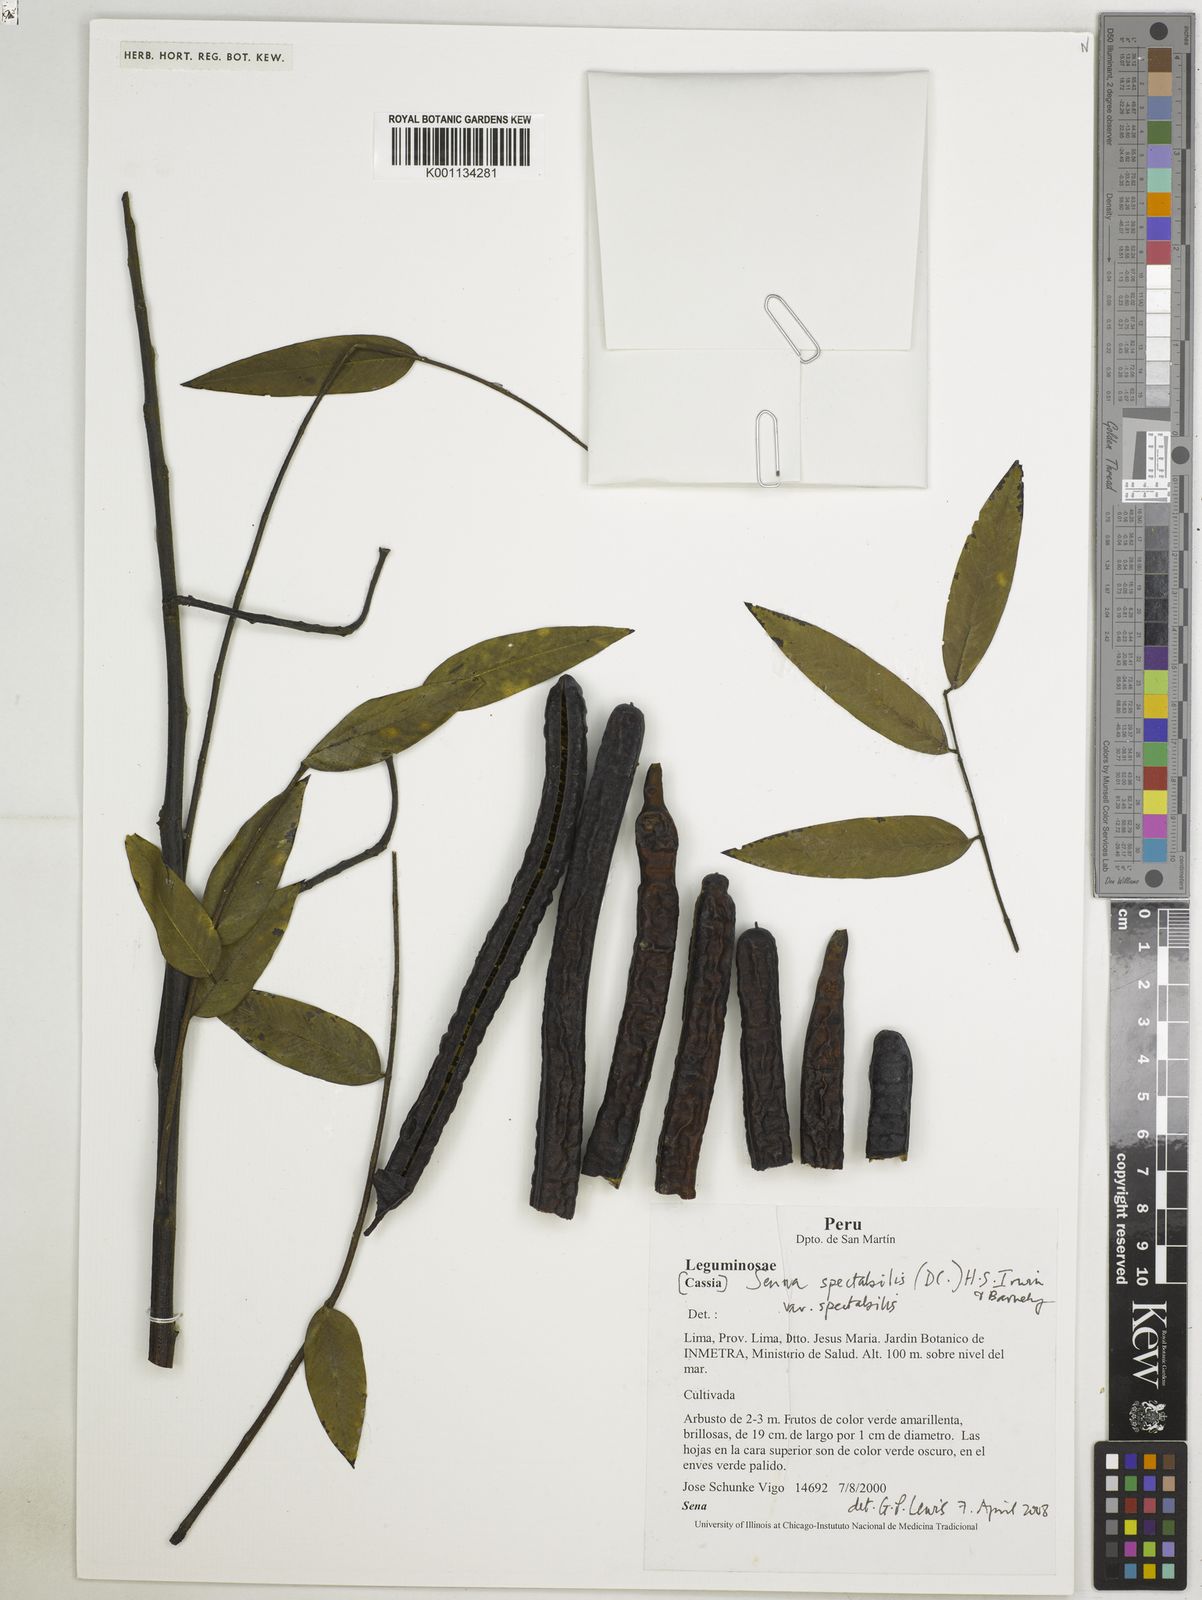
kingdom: Plantae
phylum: Tracheophyta
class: Magnoliopsida
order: Fabales
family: Fabaceae
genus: Senna
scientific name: Senna spectabilis
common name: Casia amarilla
